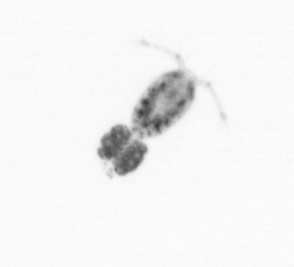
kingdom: Animalia
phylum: Arthropoda
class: Copepoda
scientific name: Copepoda
